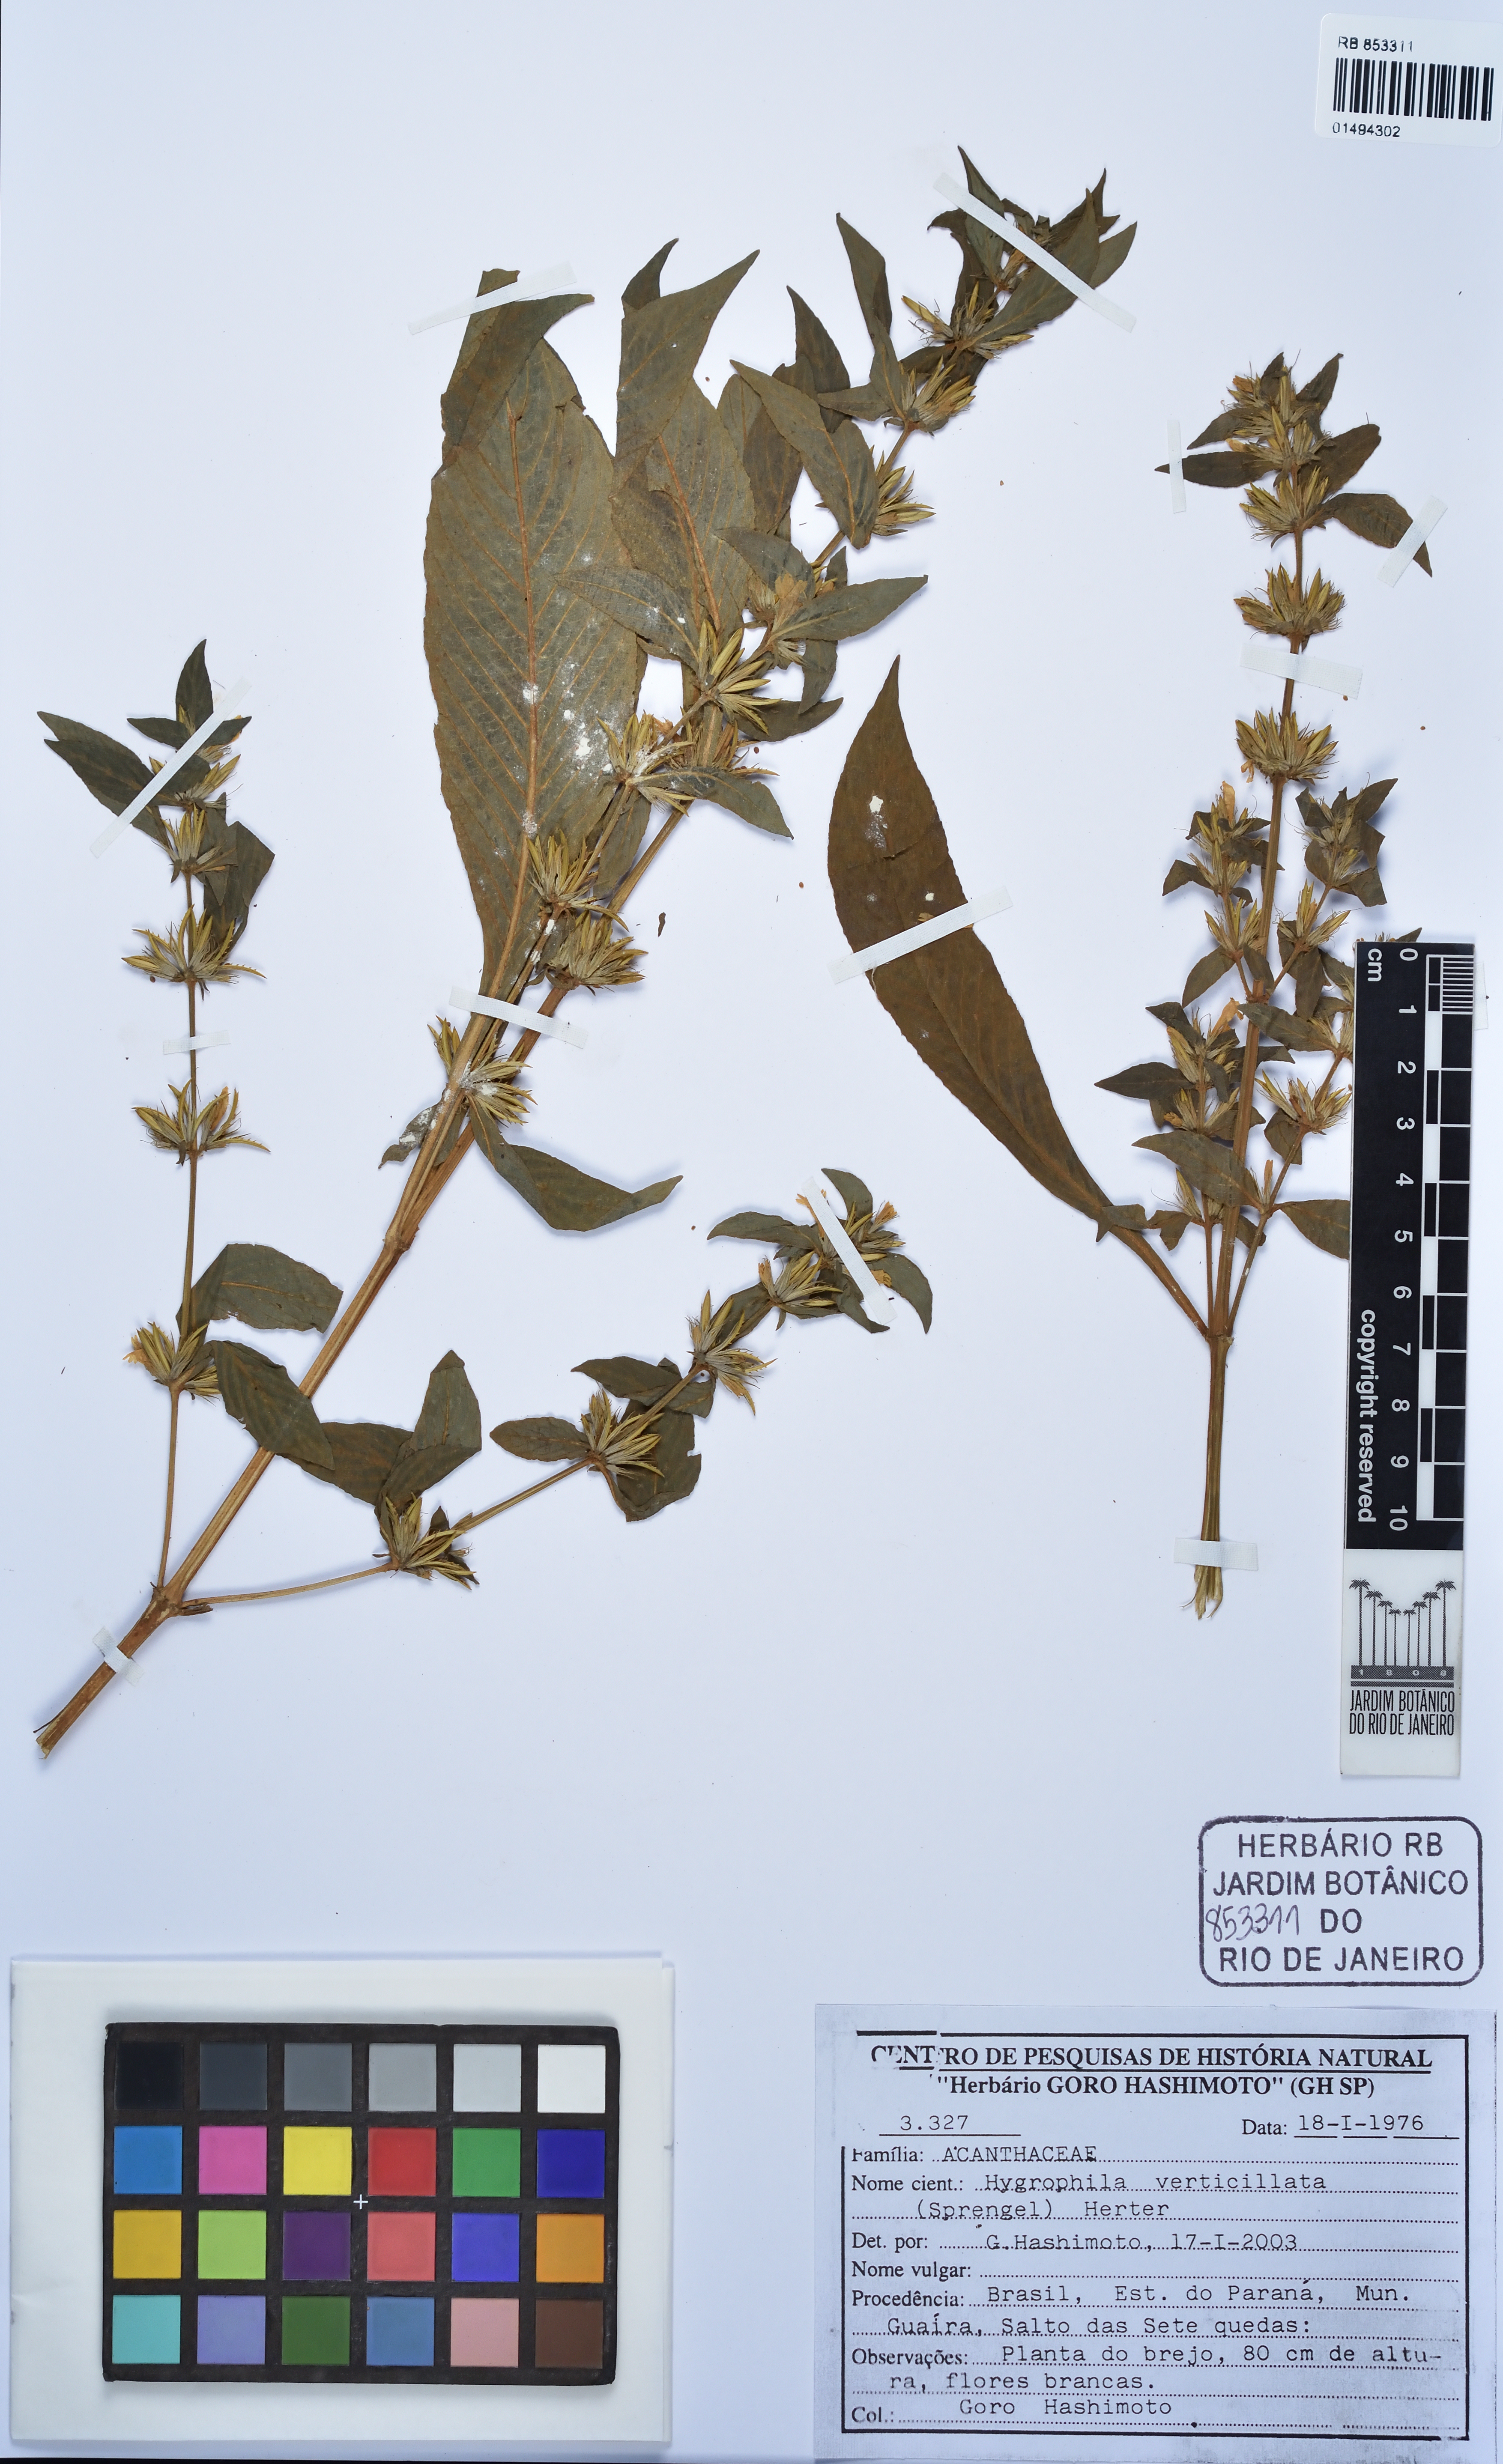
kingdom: Plantae
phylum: Tracheophyta
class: Magnoliopsida
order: Lamiales
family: Acanthaceae
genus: Hygrophila
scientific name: Hygrophila costata
